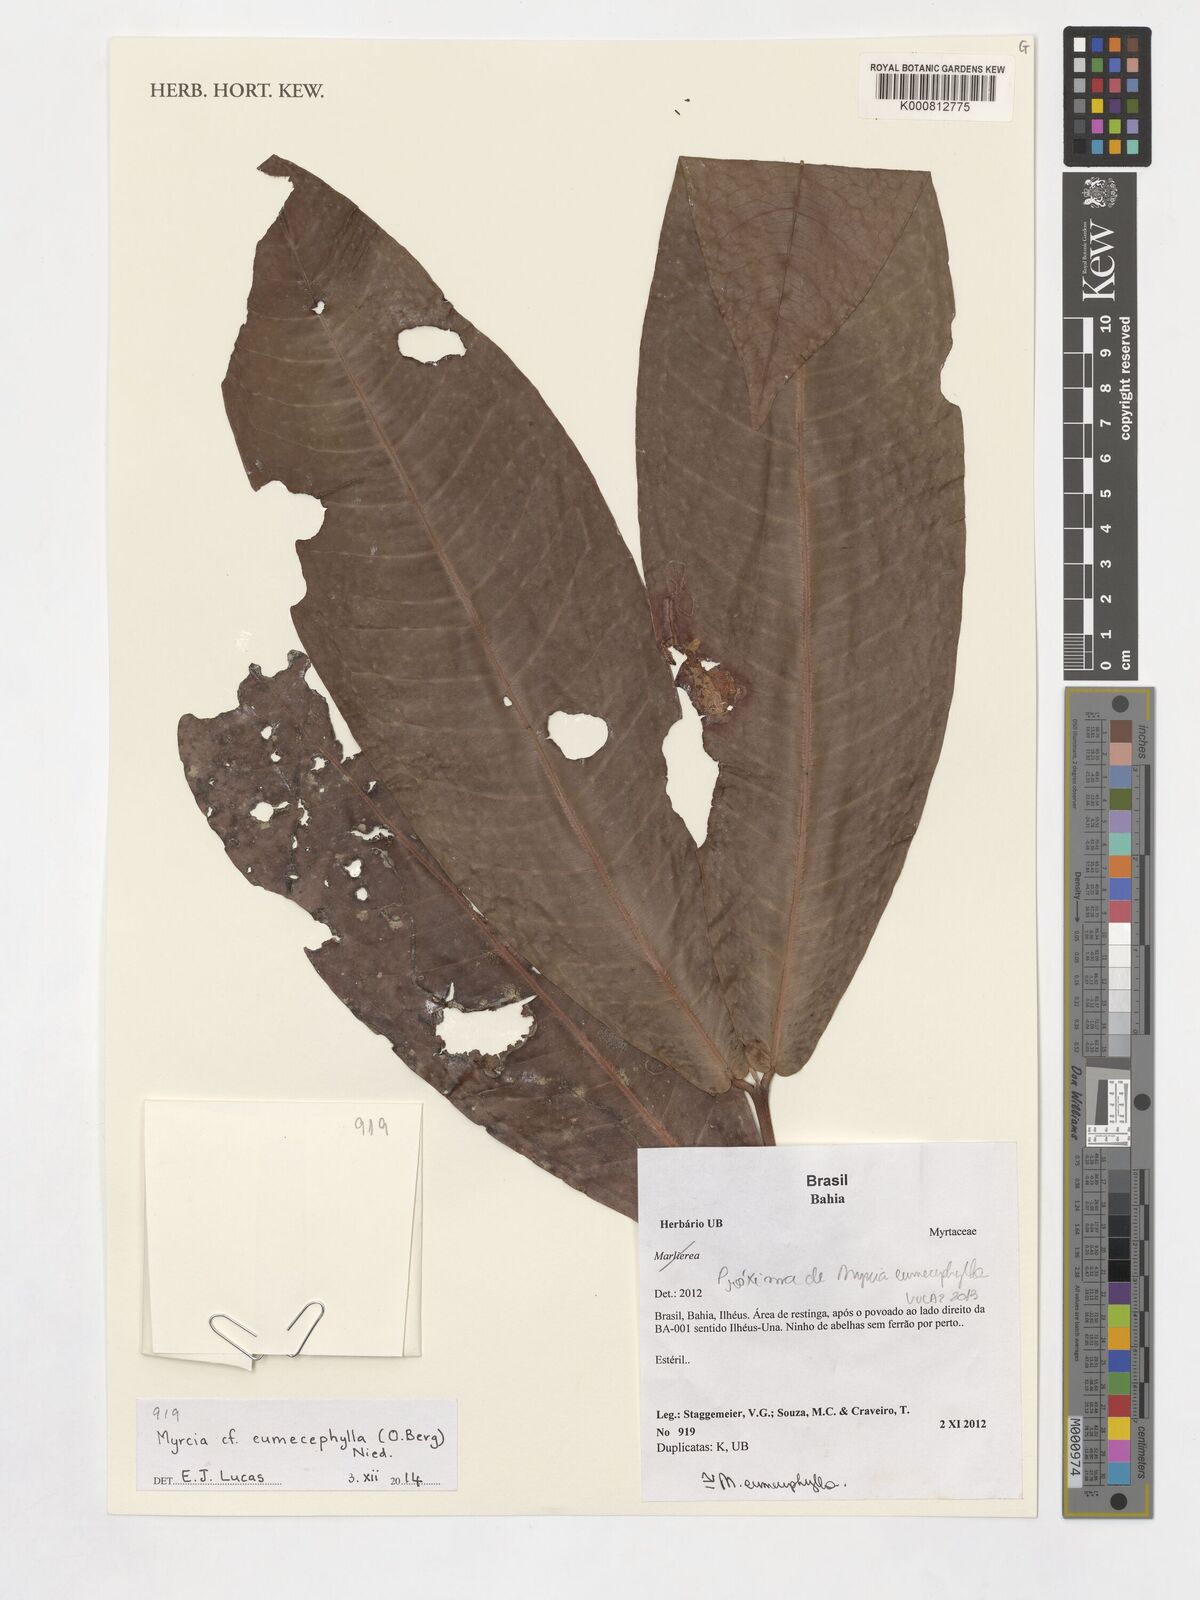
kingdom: Plantae
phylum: Tracheophyta
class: Magnoliopsida
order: Myrtales
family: Myrtaceae
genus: Myrcia
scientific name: Myrcia eumecephylla
